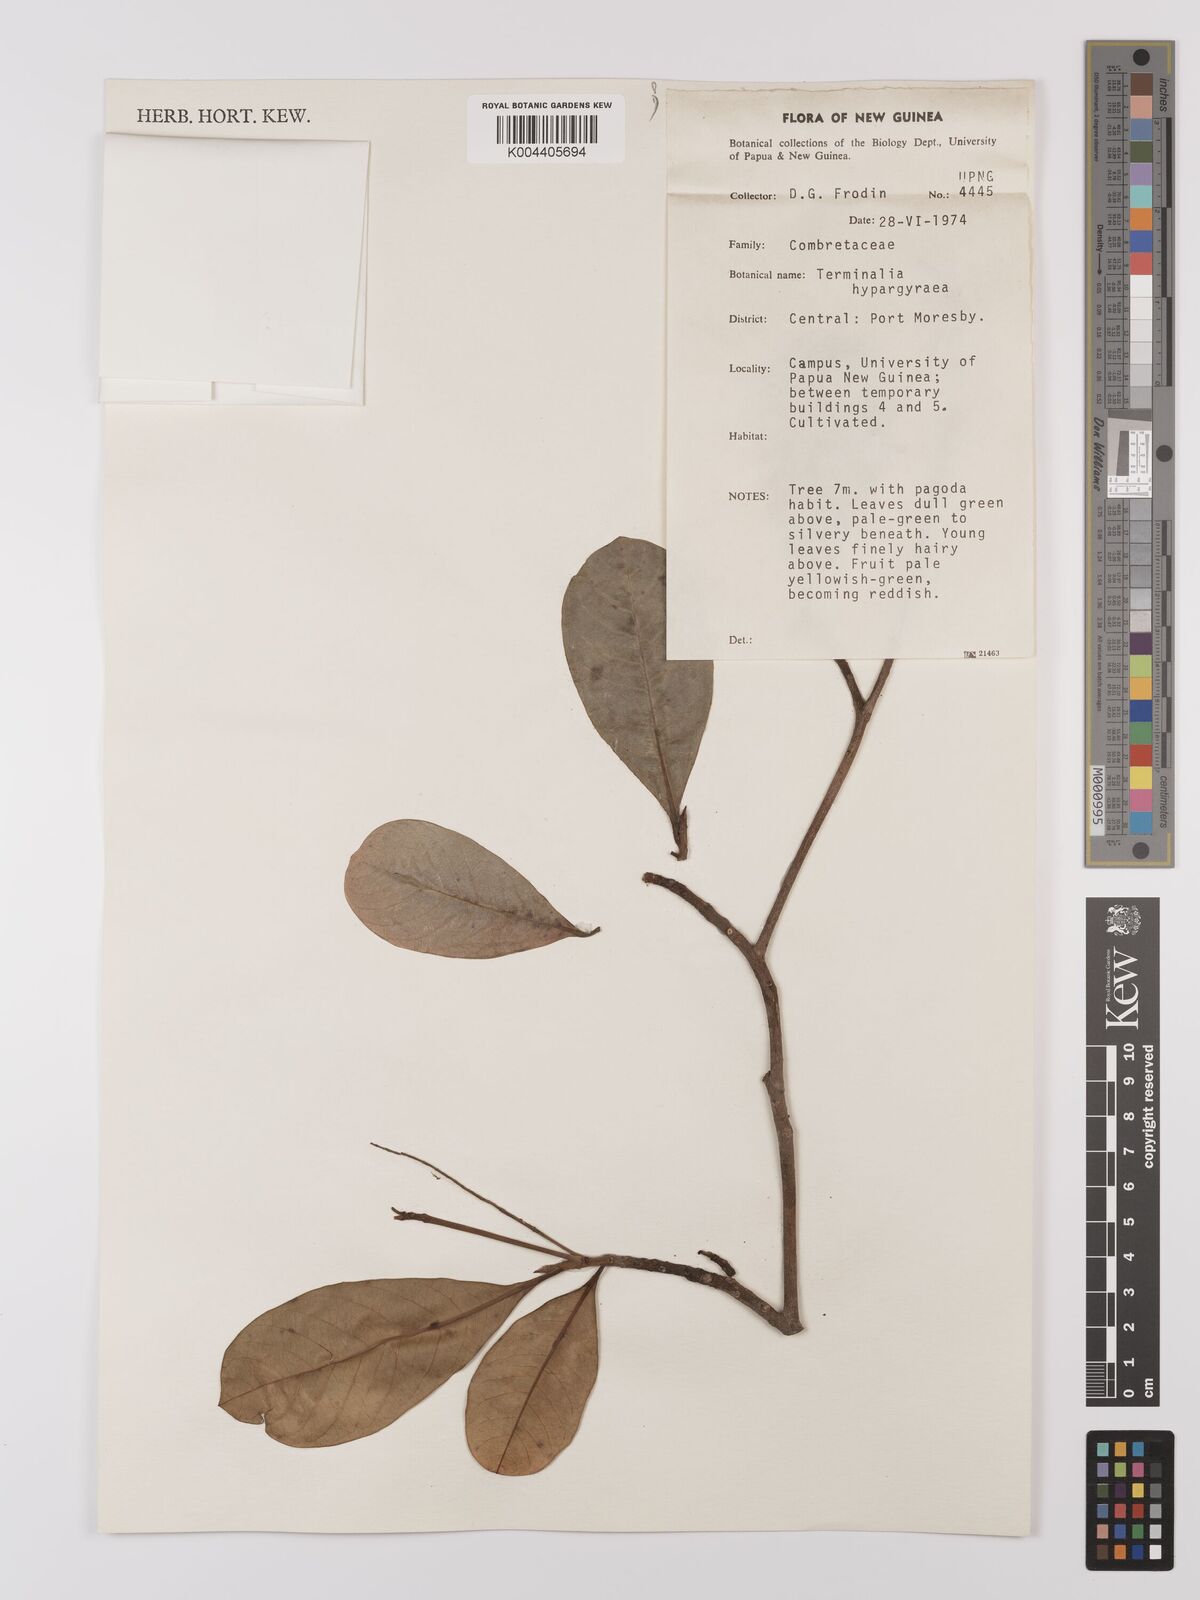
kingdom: Plantae
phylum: Tracheophyta
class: Magnoliopsida
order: Myrtales
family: Combretaceae
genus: Terminalia
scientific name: Terminalia microcarpa
